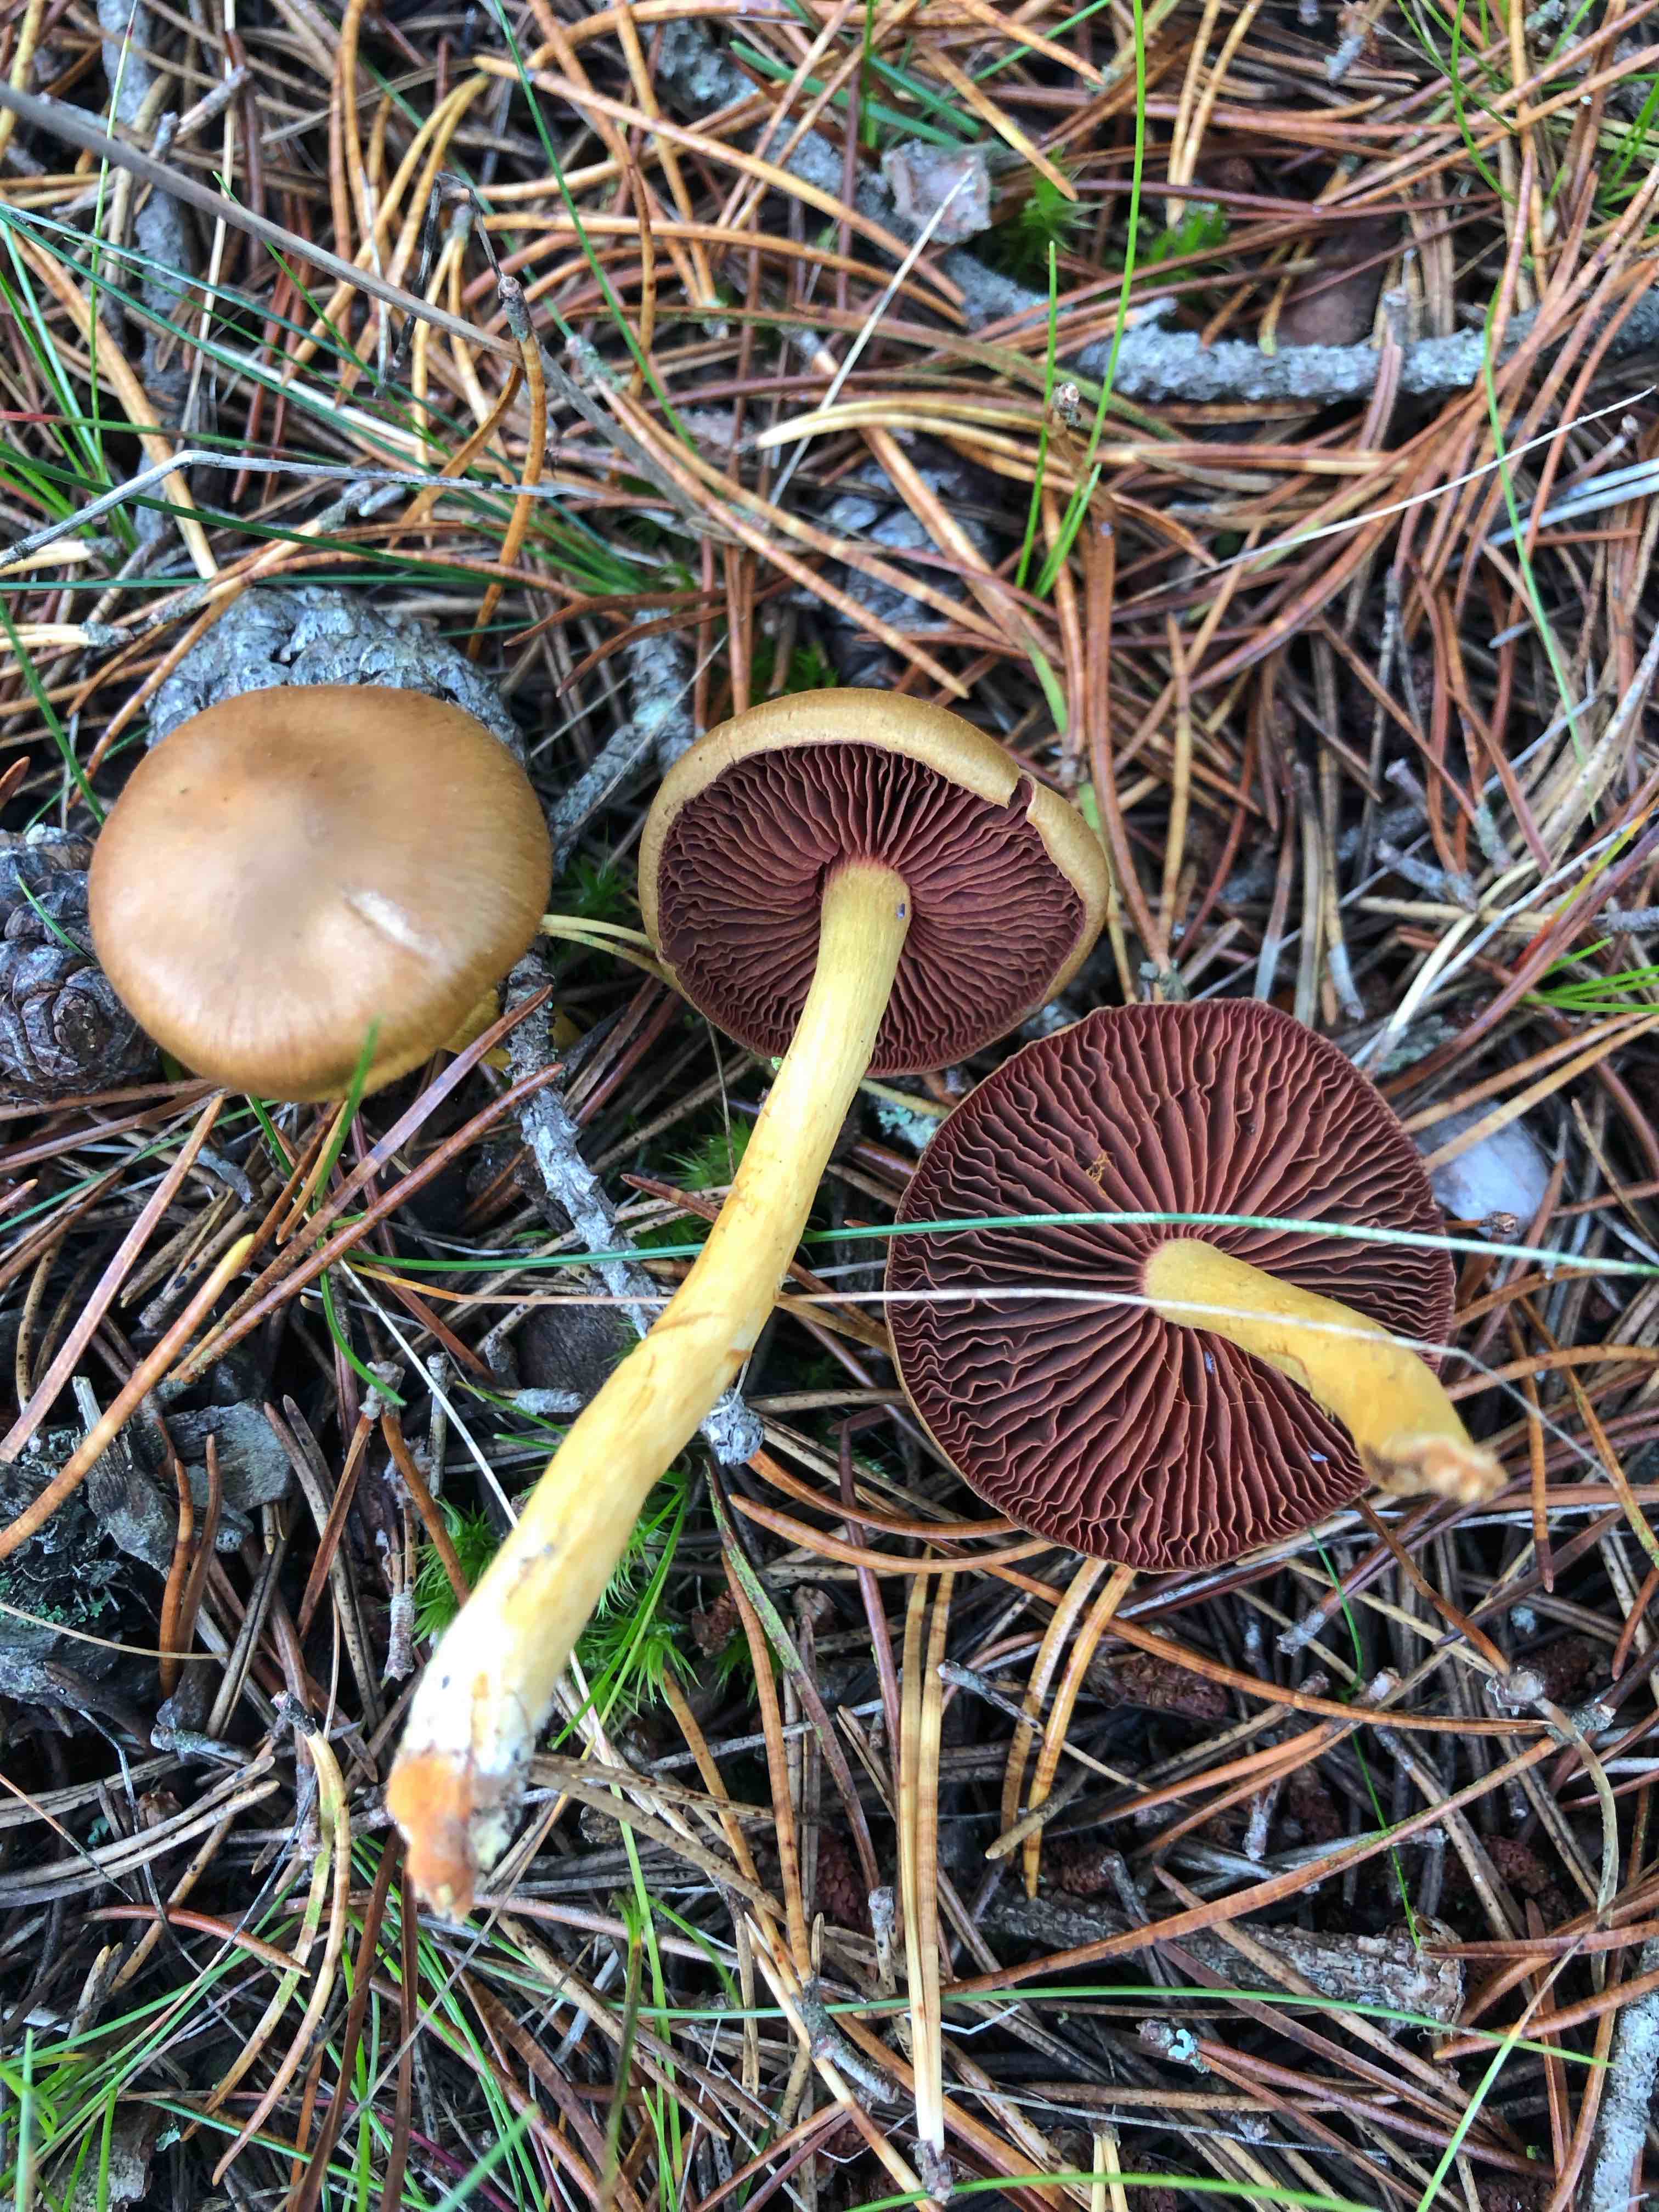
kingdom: Fungi
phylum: Basidiomycota
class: Agaricomycetes
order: Agaricales
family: Cortinariaceae
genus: Cortinarius
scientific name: Cortinarius
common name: cinnoberbladet slørhat
